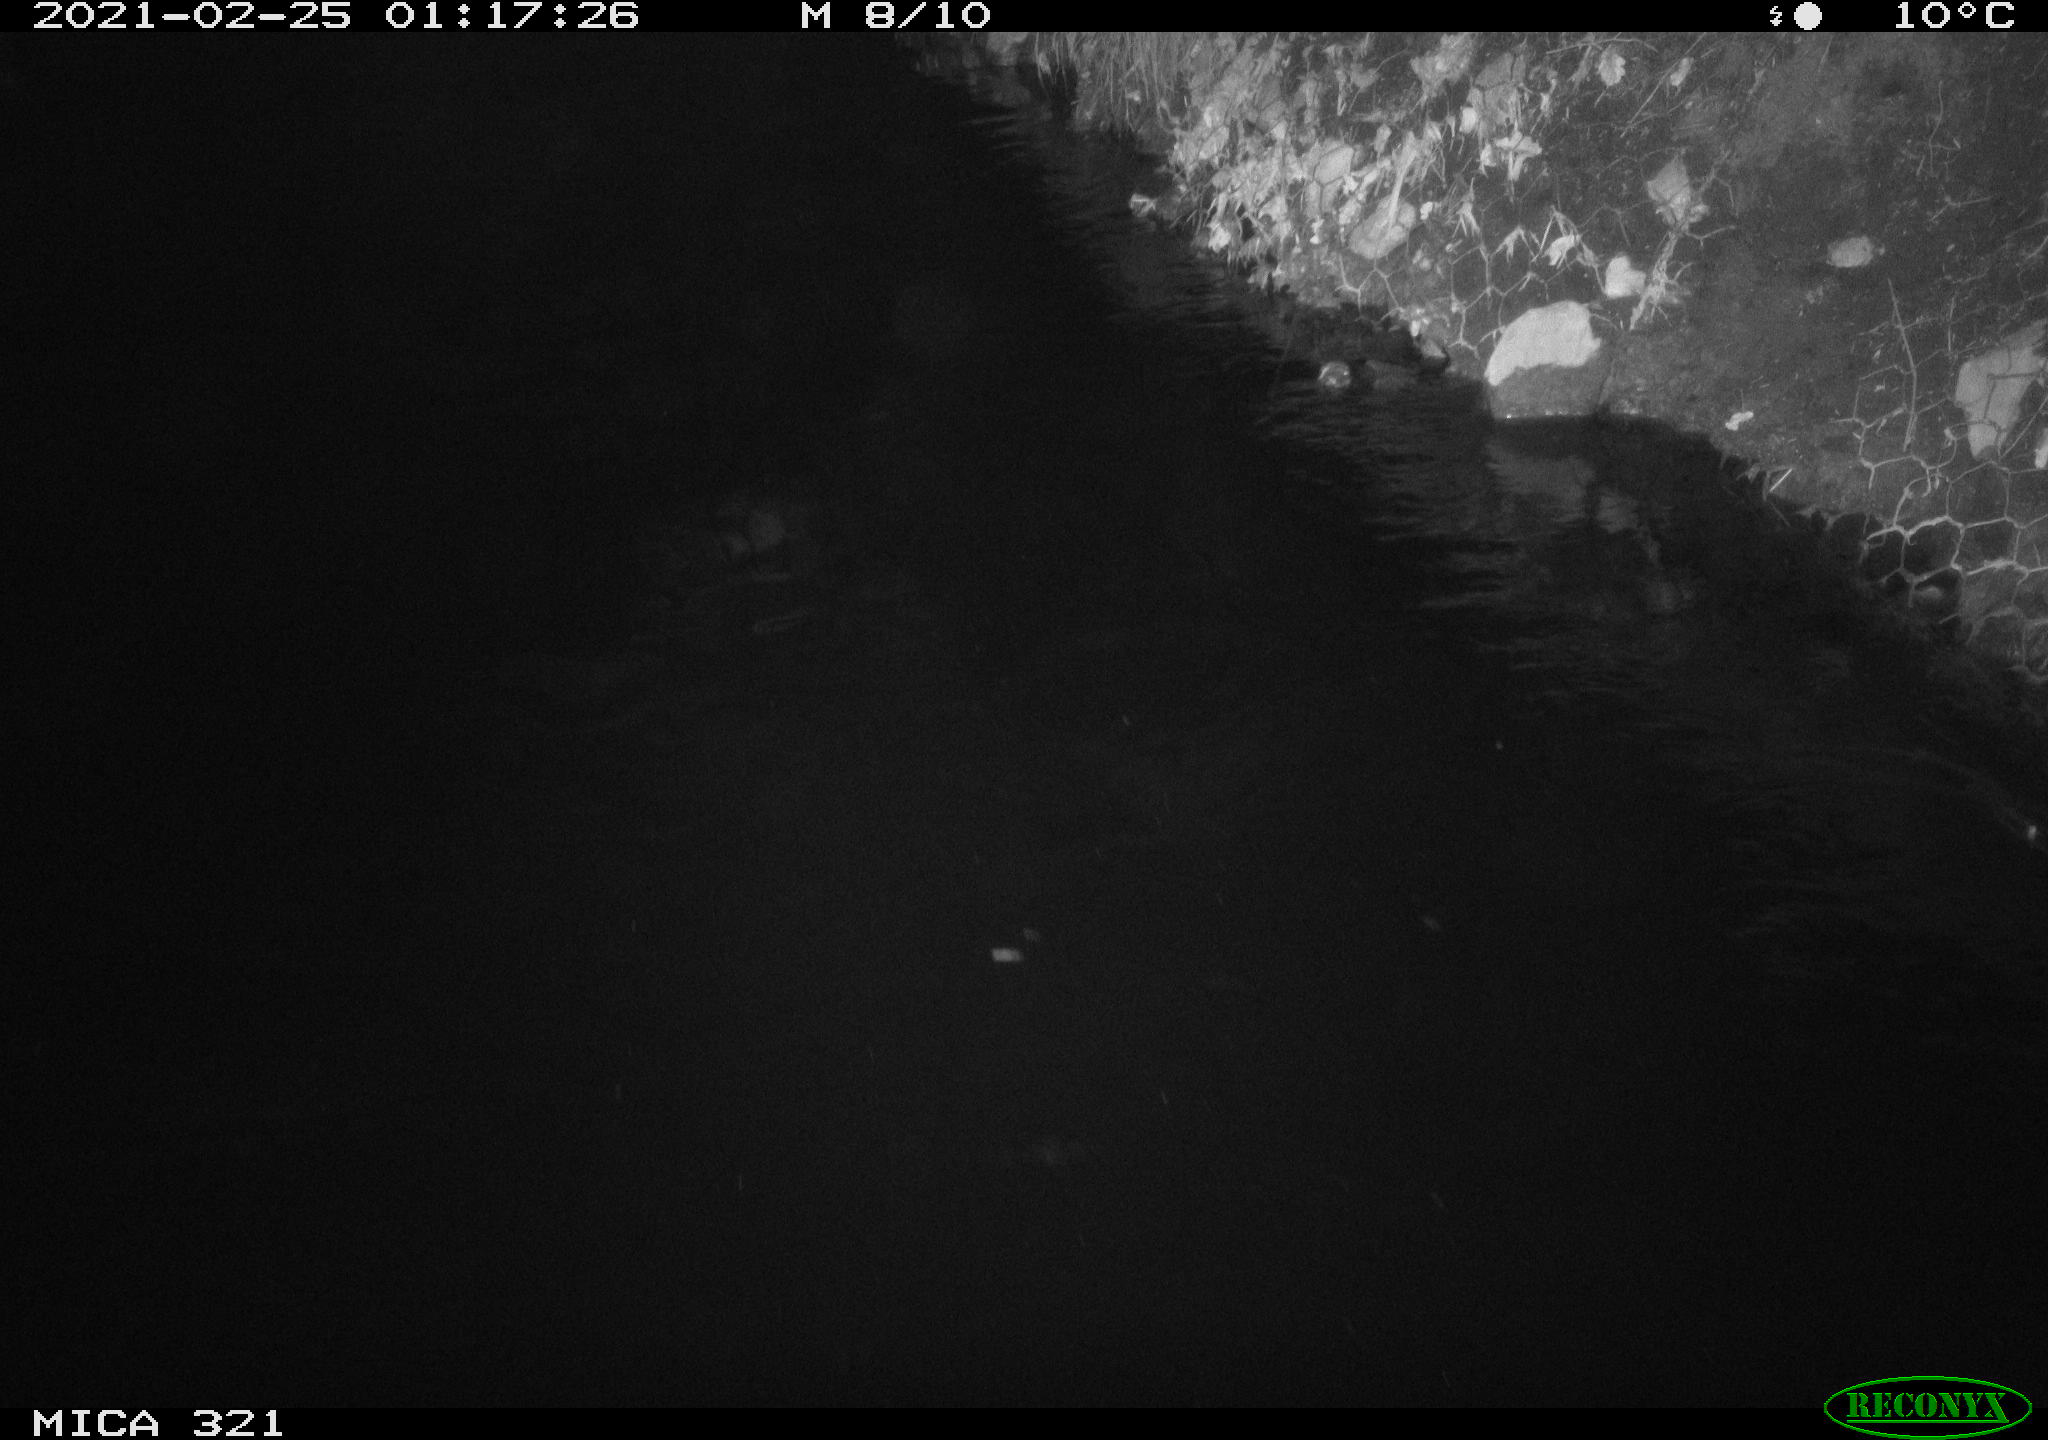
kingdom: Animalia
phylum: Chordata
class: Aves
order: Anseriformes
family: Anatidae
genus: Anas
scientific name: Anas platyrhynchos
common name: Mallard
